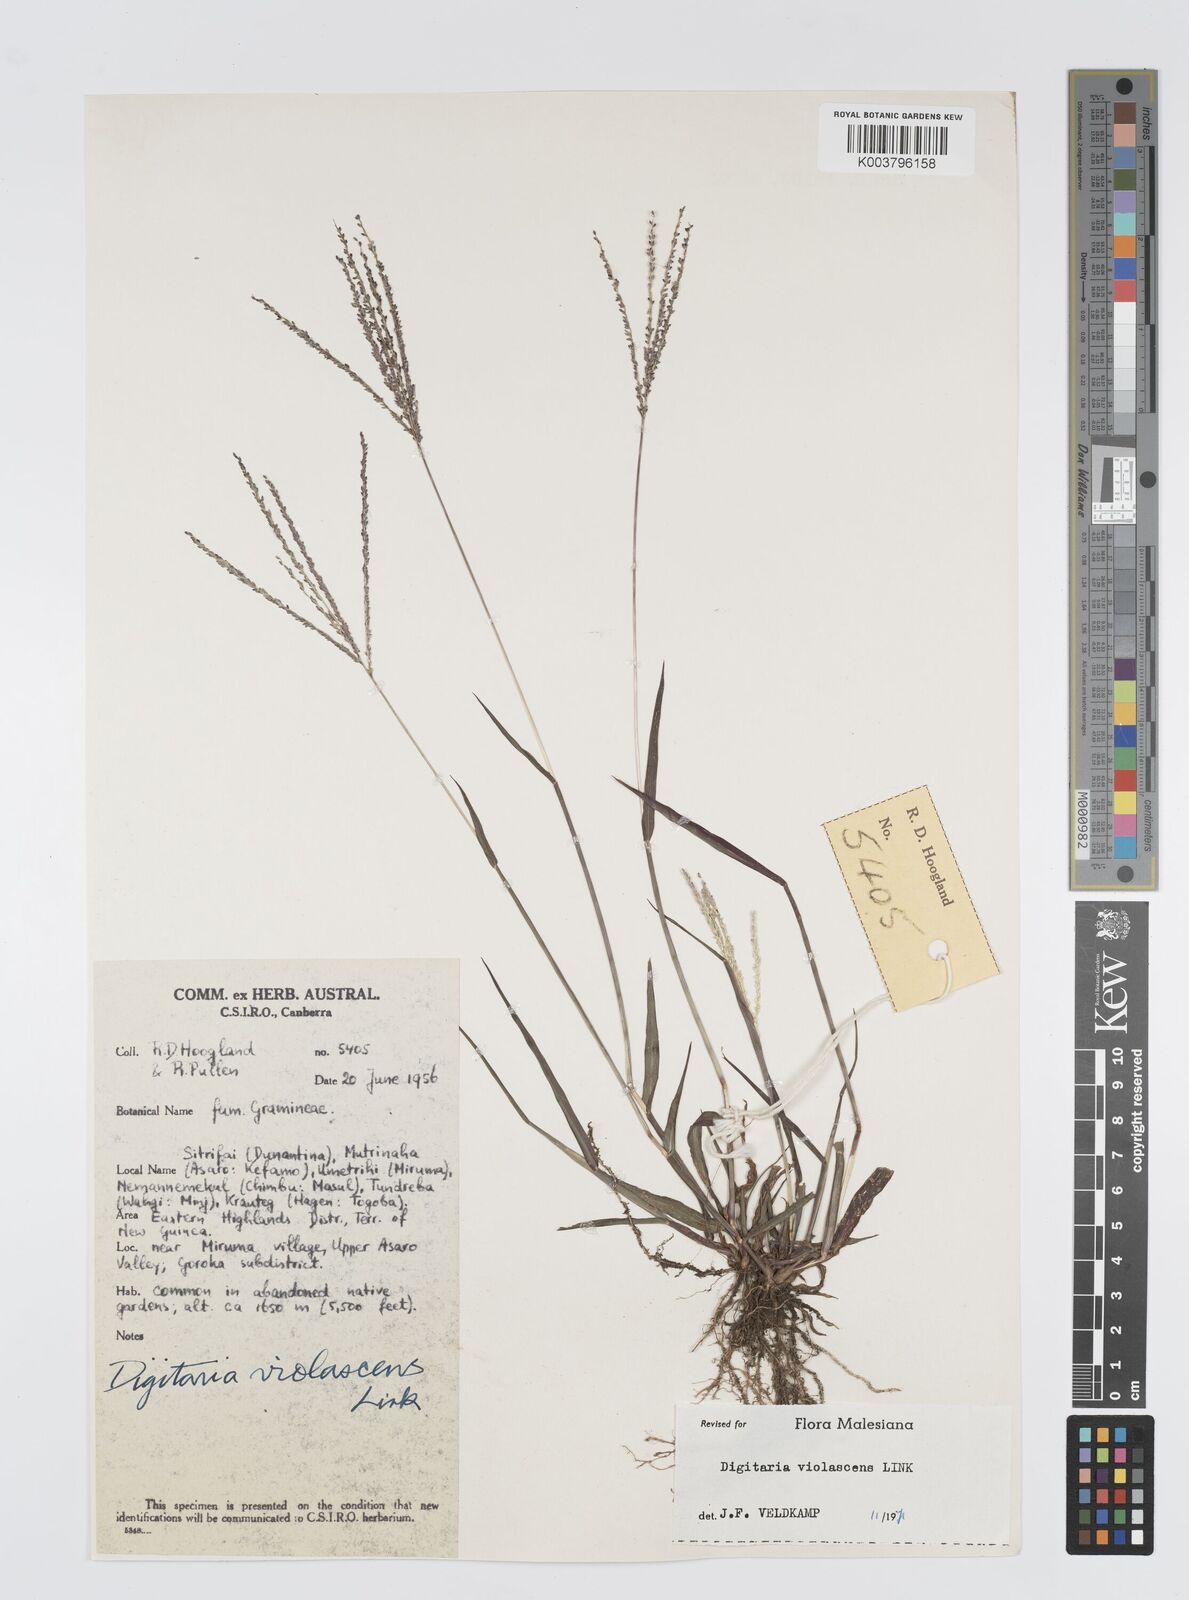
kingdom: Plantae
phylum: Tracheophyta
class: Liliopsida
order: Poales
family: Poaceae
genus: Digitaria
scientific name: Digitaria violascens
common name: Violet crabgrass
